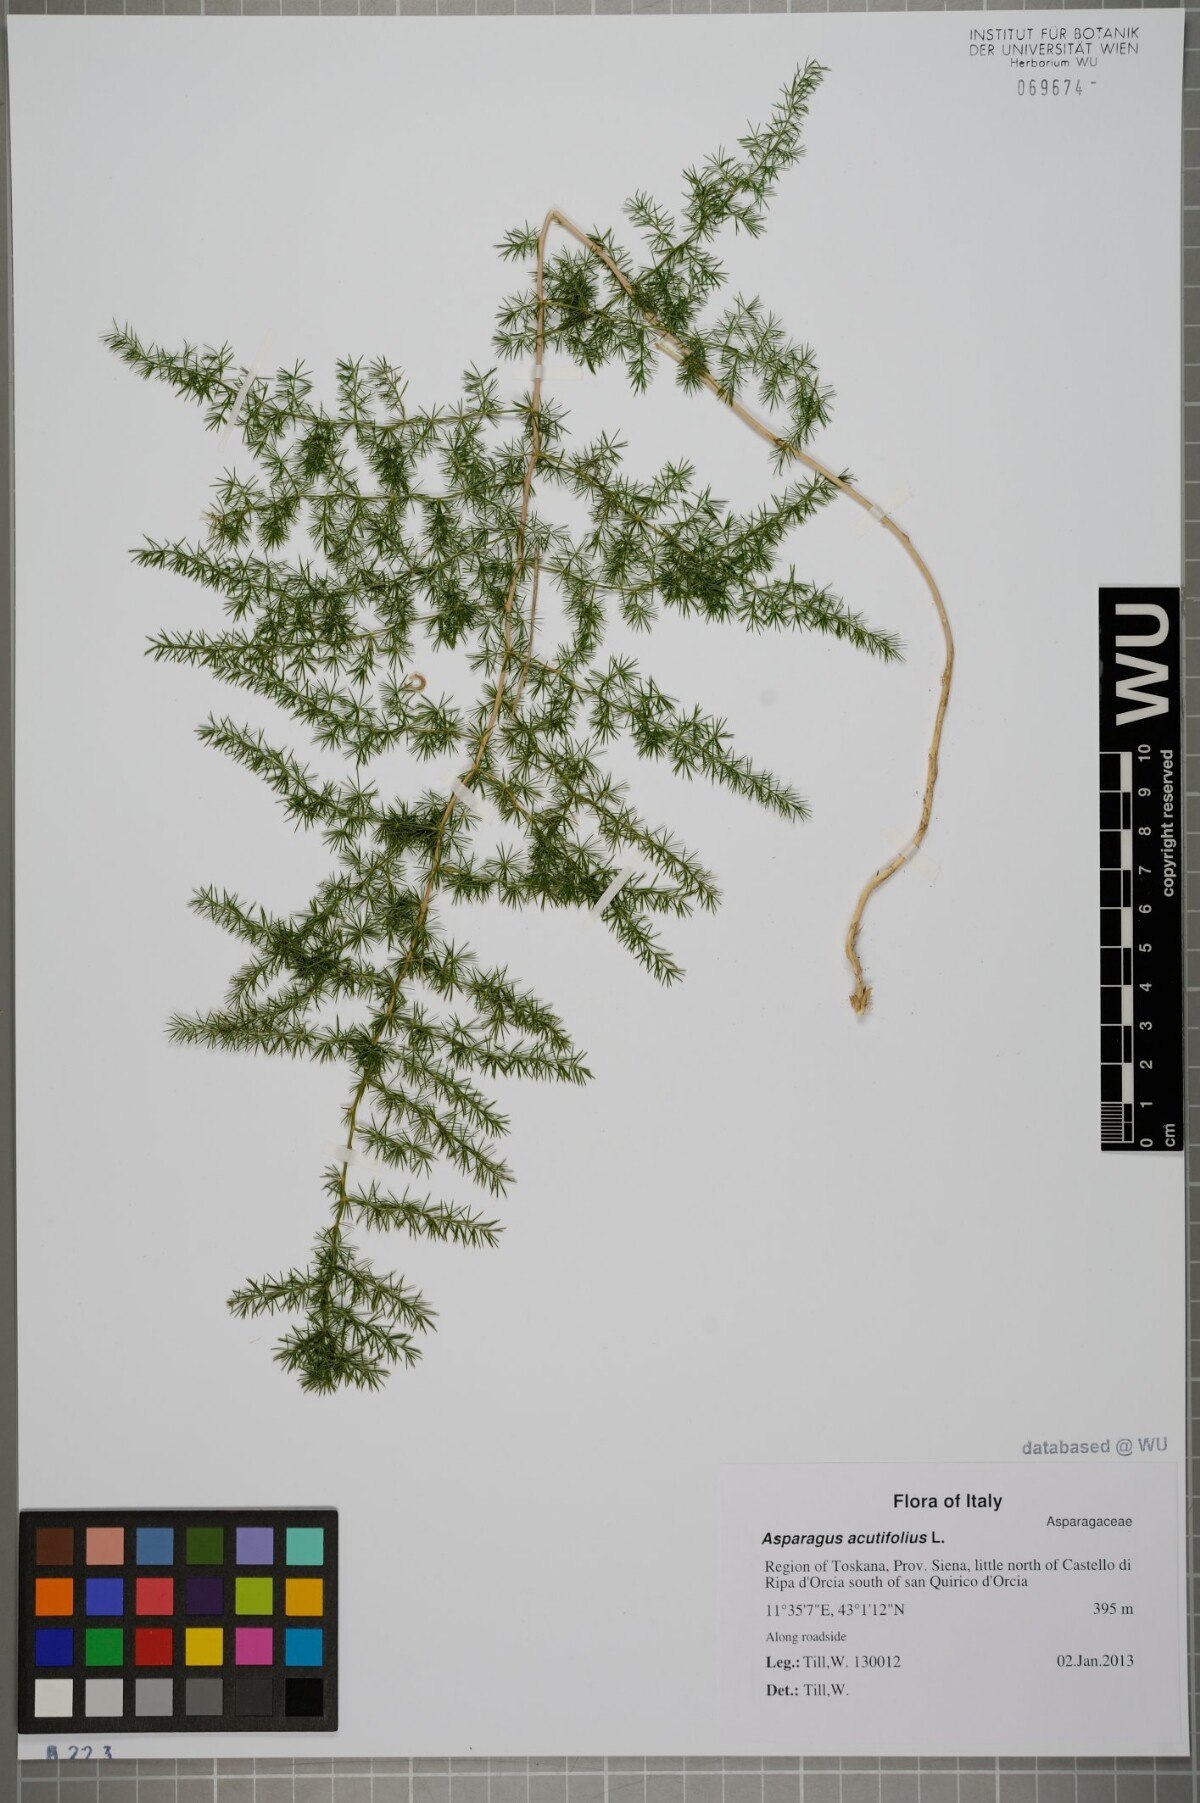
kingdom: Plantae
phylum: Tracheophyta
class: Liliopsida
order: Asparagales
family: Asparagaceae
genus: Asparagus
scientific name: Asparagus acutifolius
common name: Wild asparagus
